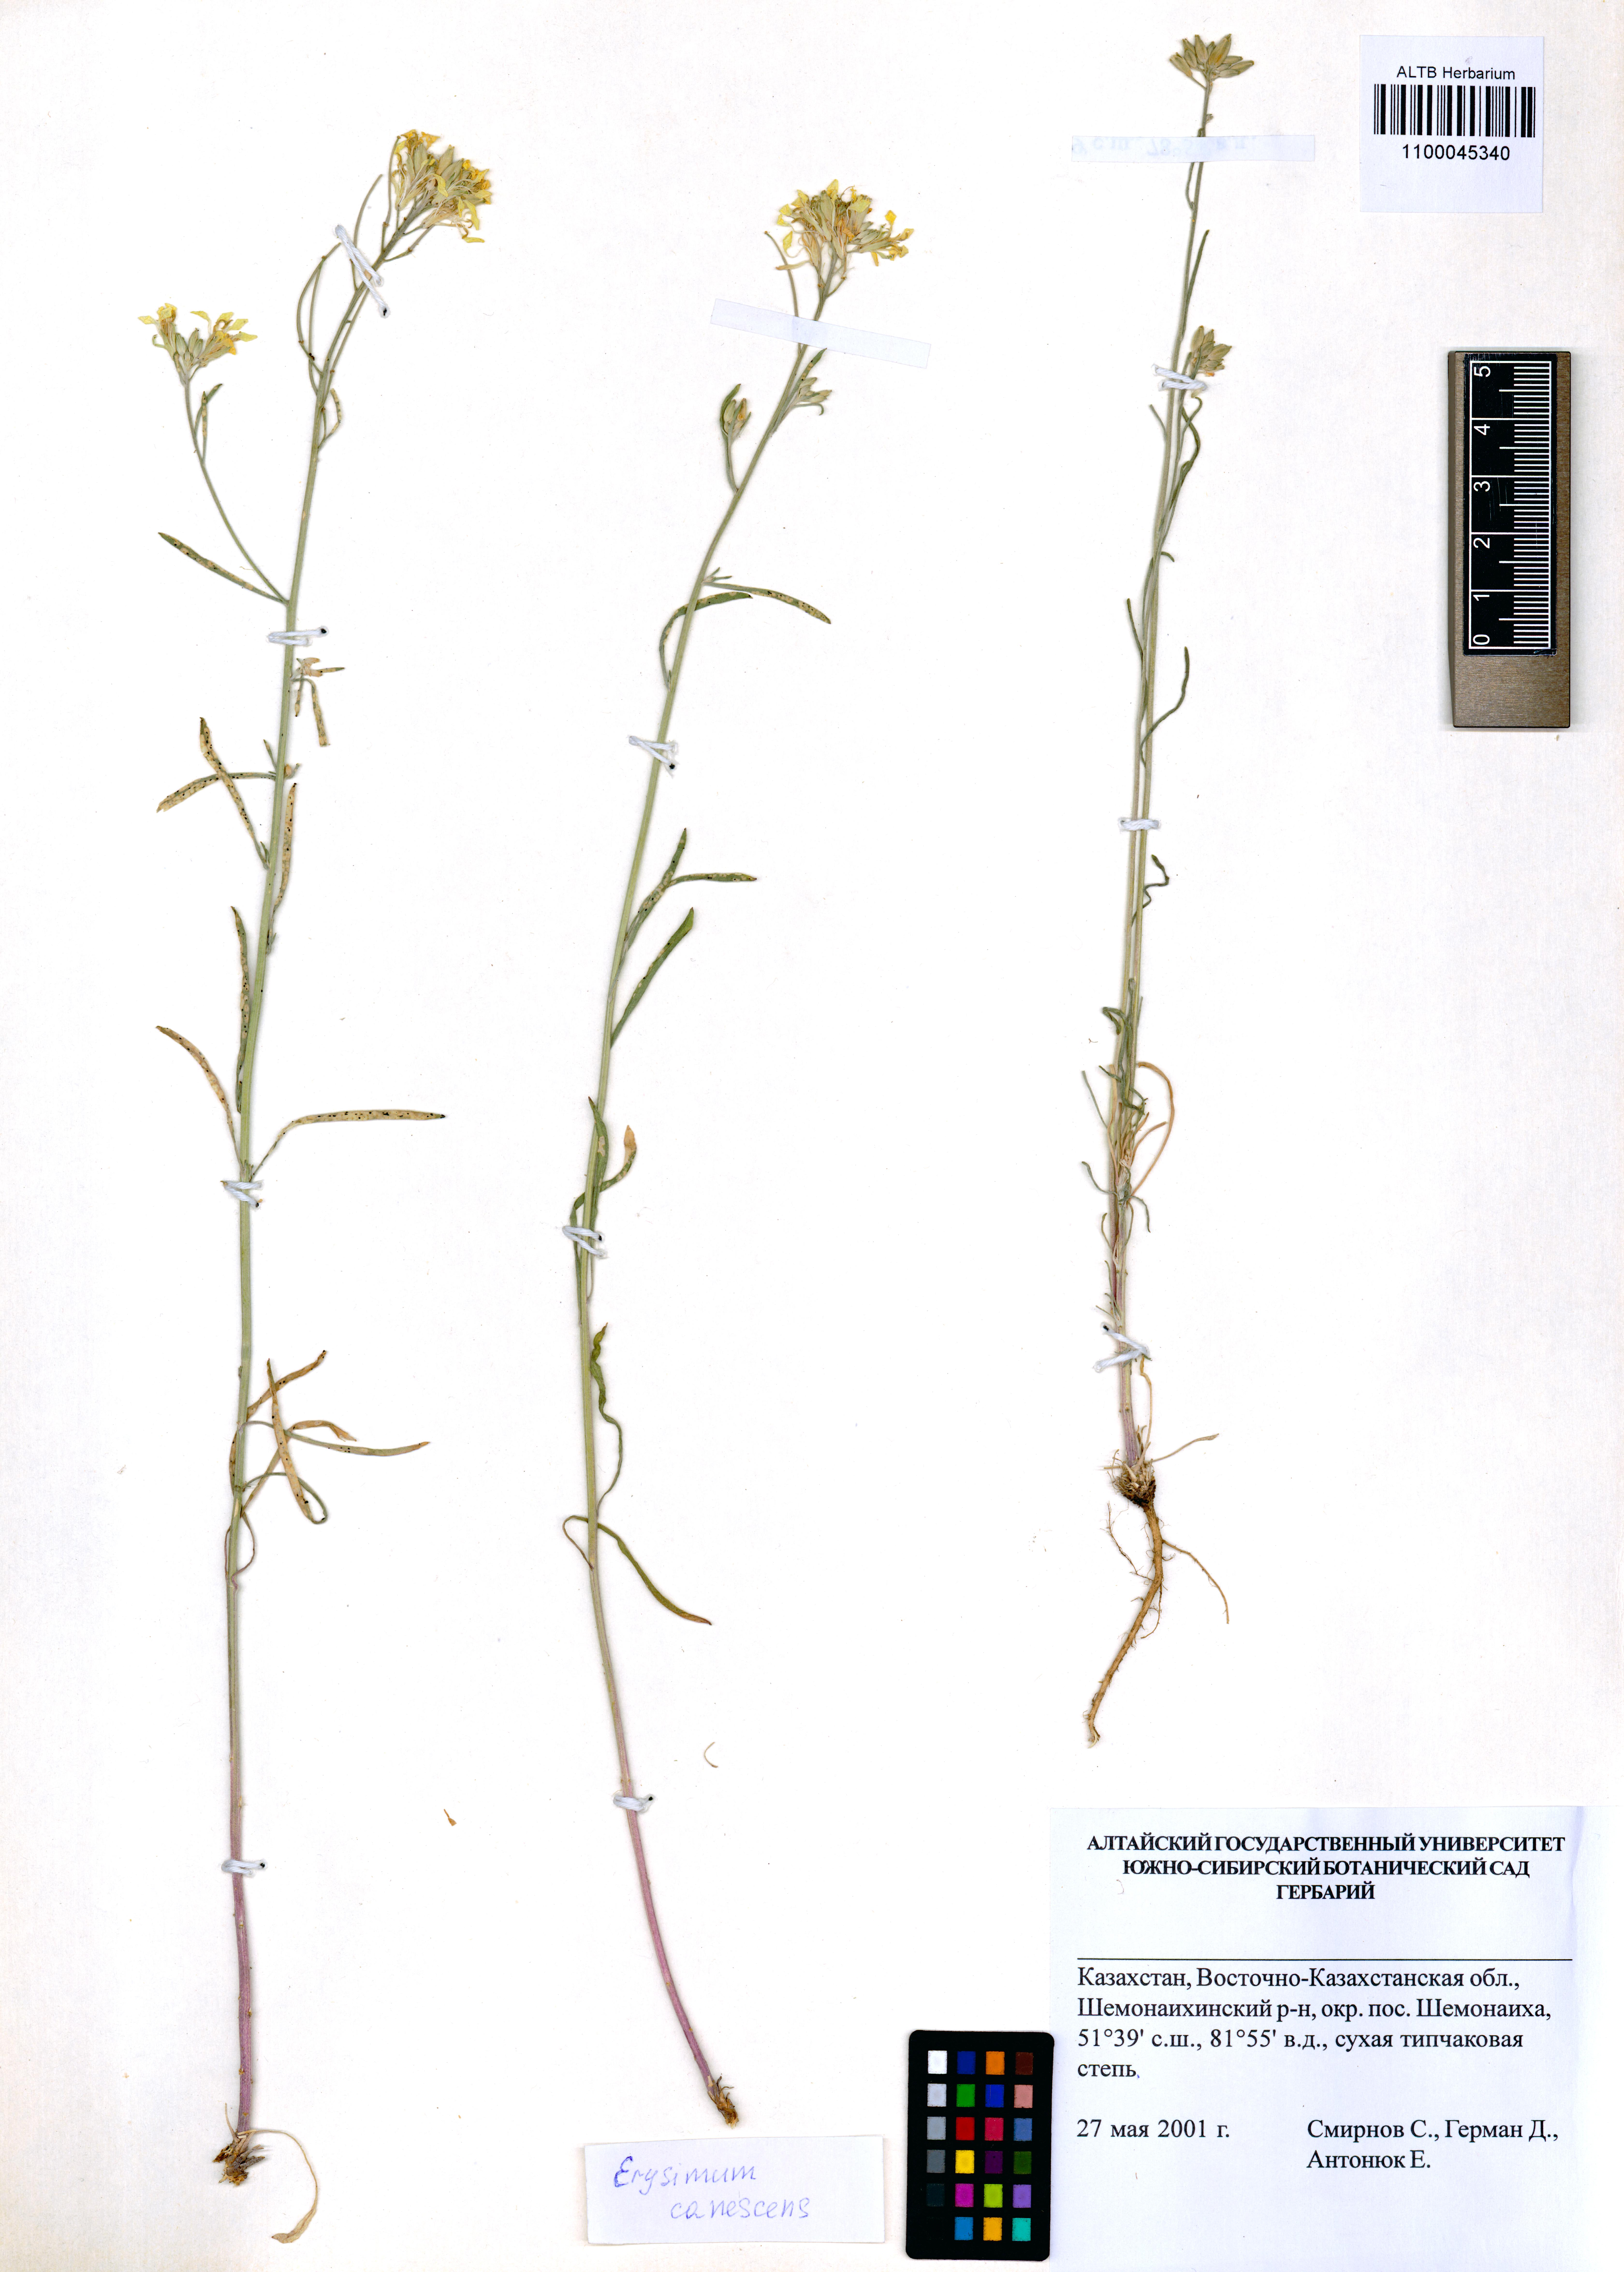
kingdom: Plantae
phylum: Tracheophyta
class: Magnoliopsida
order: Brassicales
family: Brassicaceae
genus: Erysimum
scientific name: Erysimum canescens
